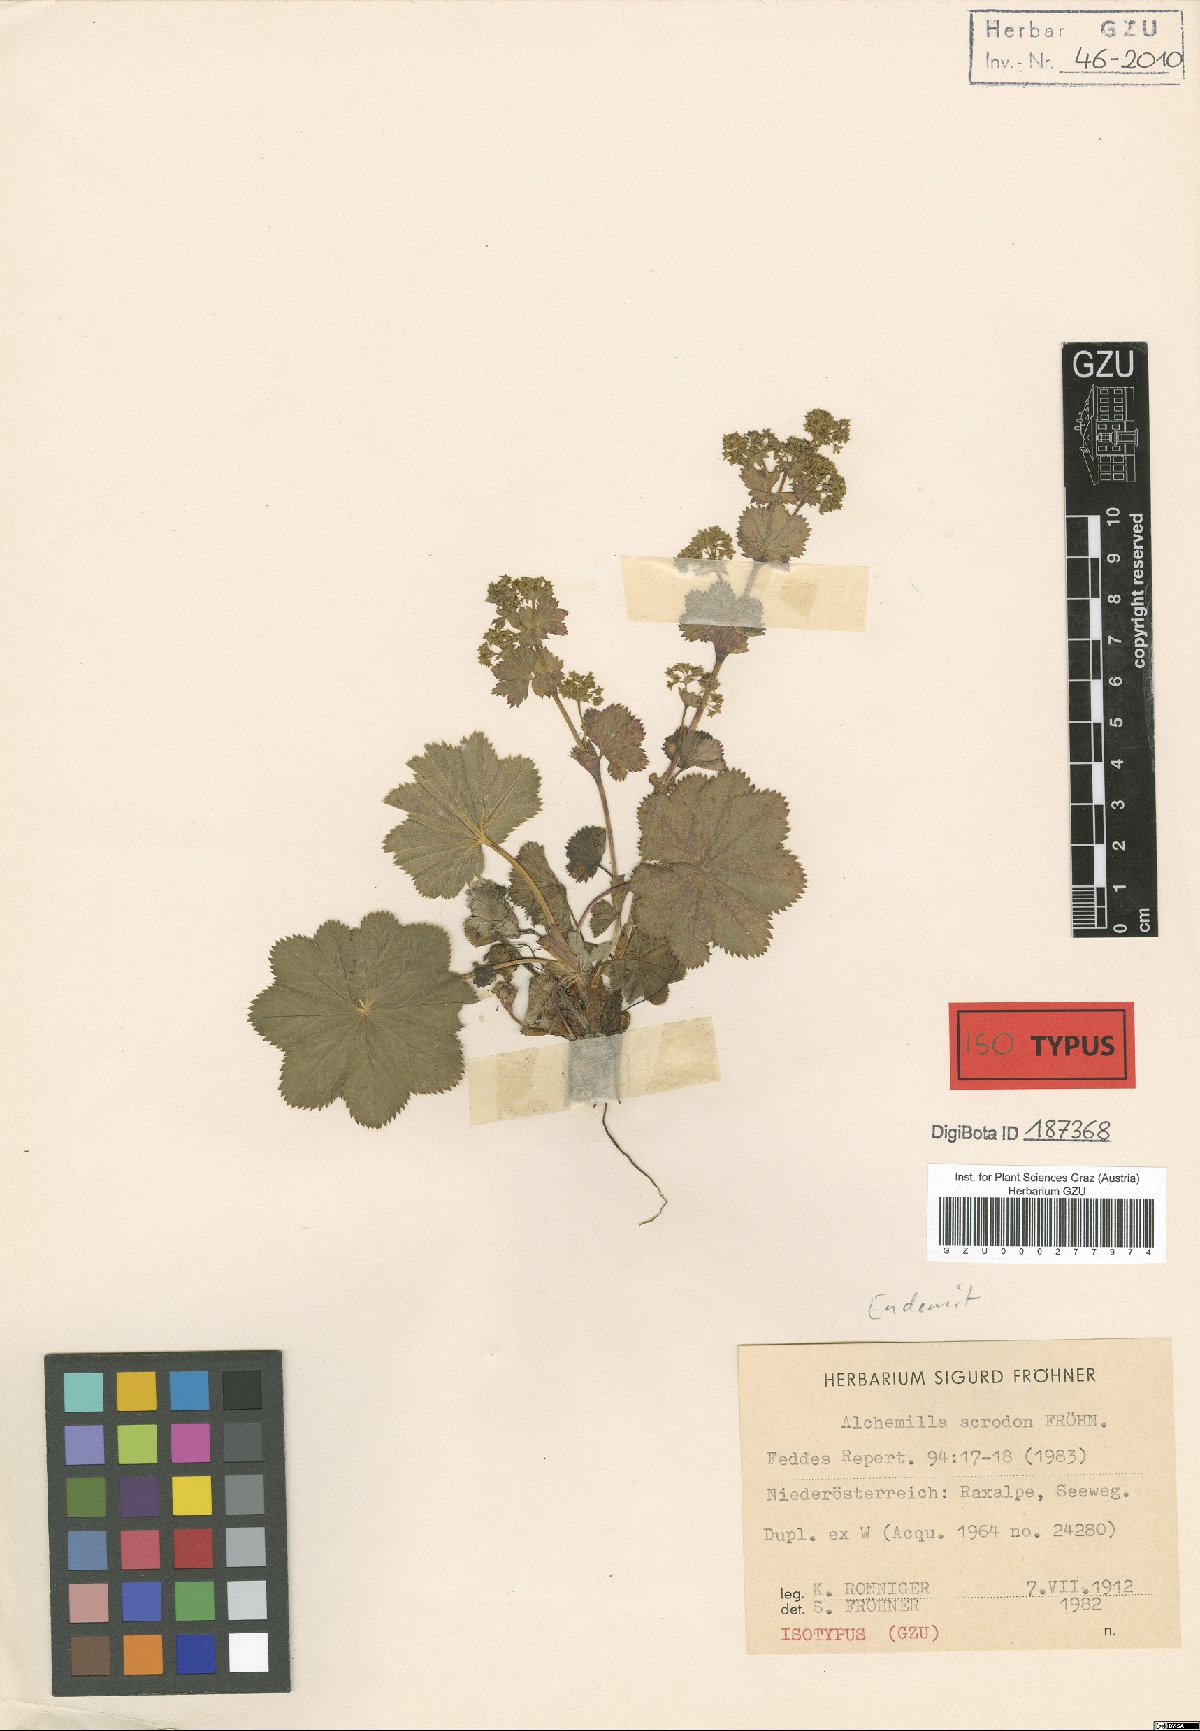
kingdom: Plantae
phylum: Tracheophyta
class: Magnoliopsida
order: Rosales
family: Rosaceae
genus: Alchemilla
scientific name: Alchemilla acrodon
